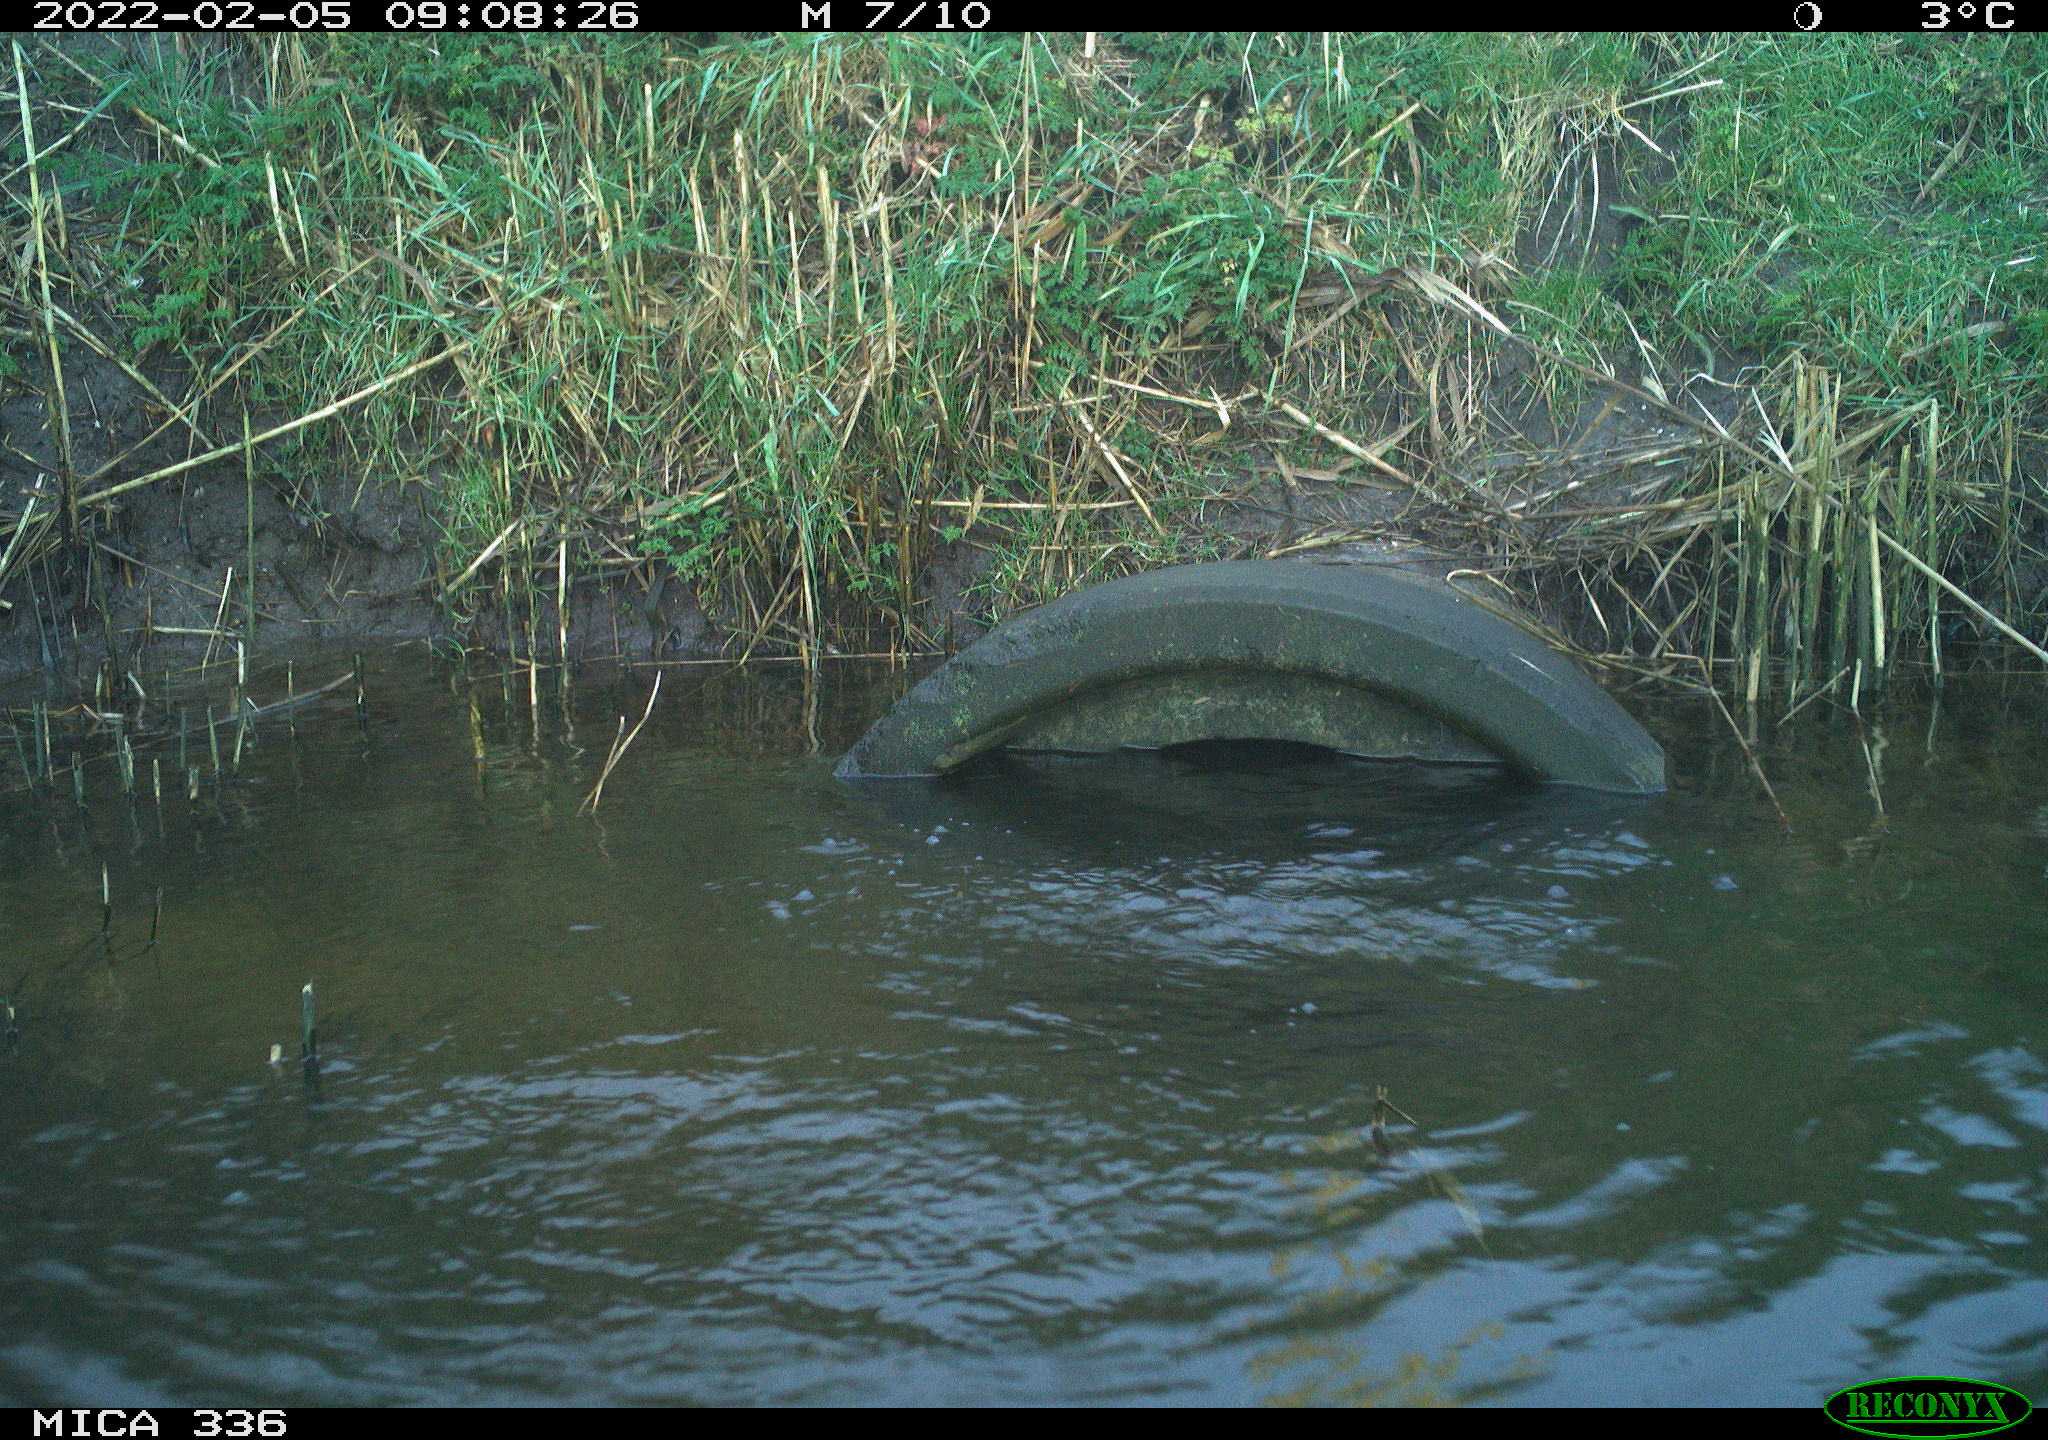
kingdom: Animalia
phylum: Chordata
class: Aves
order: Suliformes
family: Phalacrocoracidae
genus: Phalacrocorax
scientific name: Phalacrocorax carbo
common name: Great cormorant
